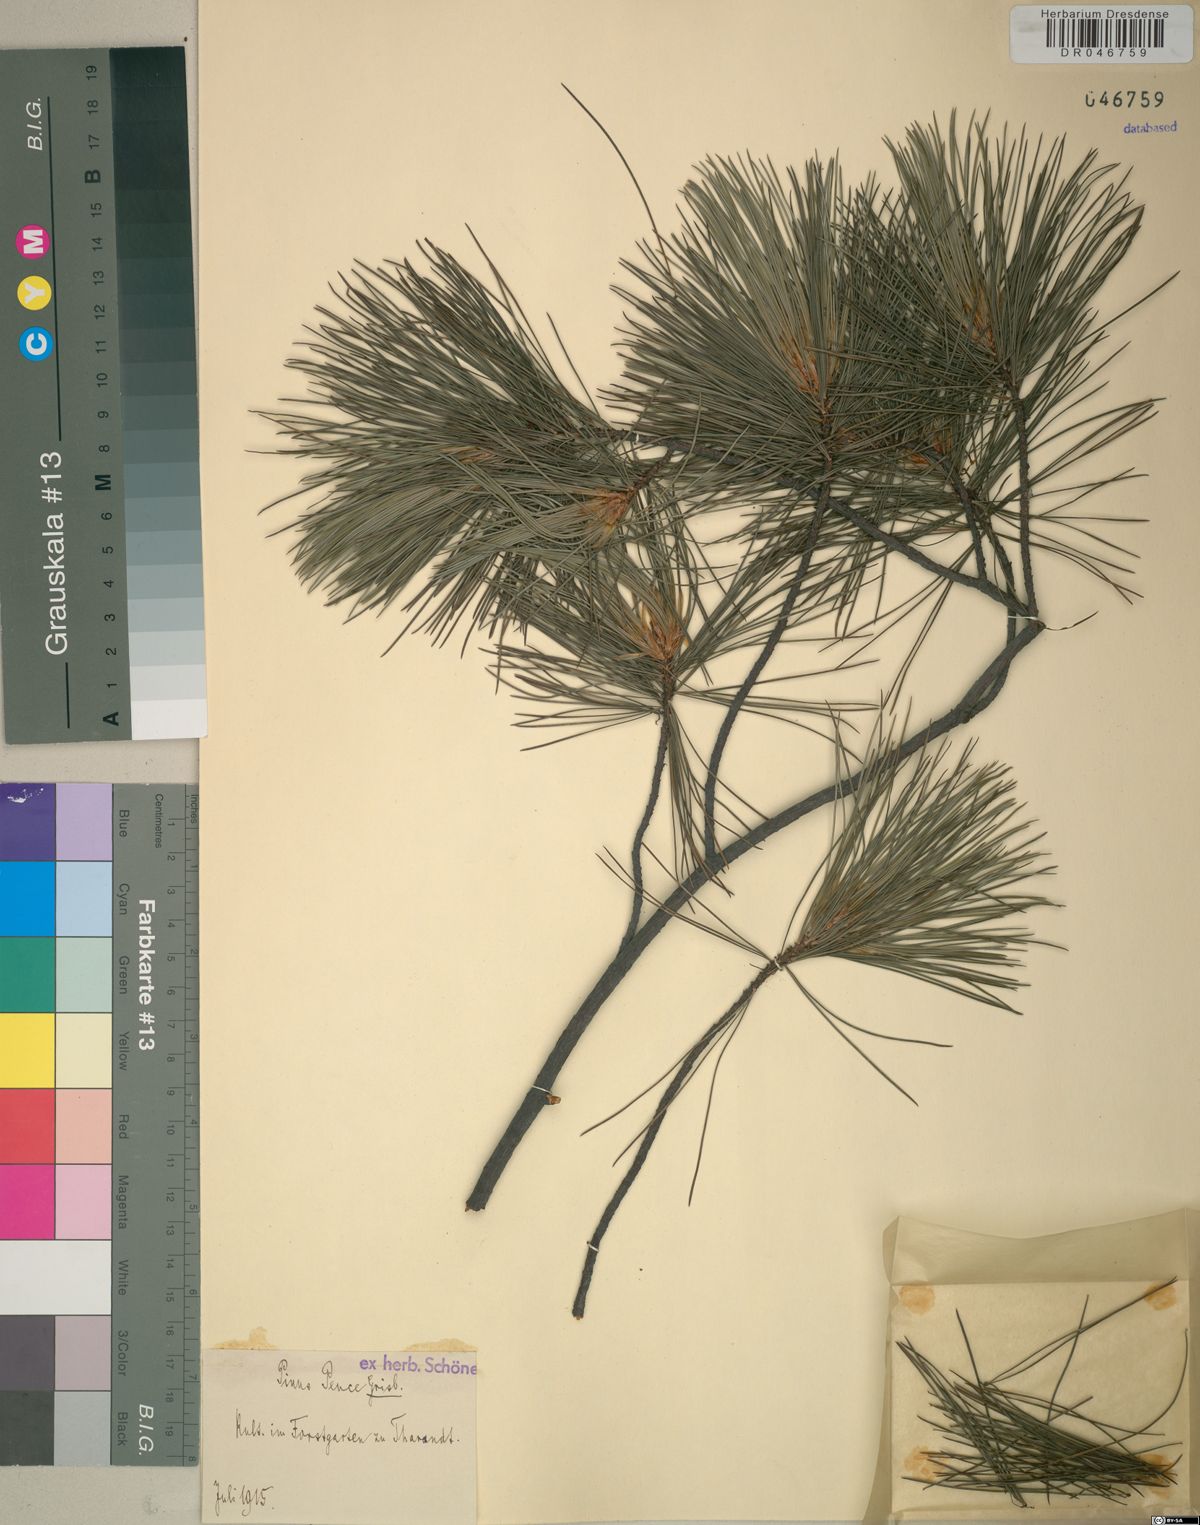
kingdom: Plantae
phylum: Tracheophyta
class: Pinopsida
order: Pinales
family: Pinaceae
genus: Pinus
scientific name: Pinus peuce
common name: Macedonian pine
